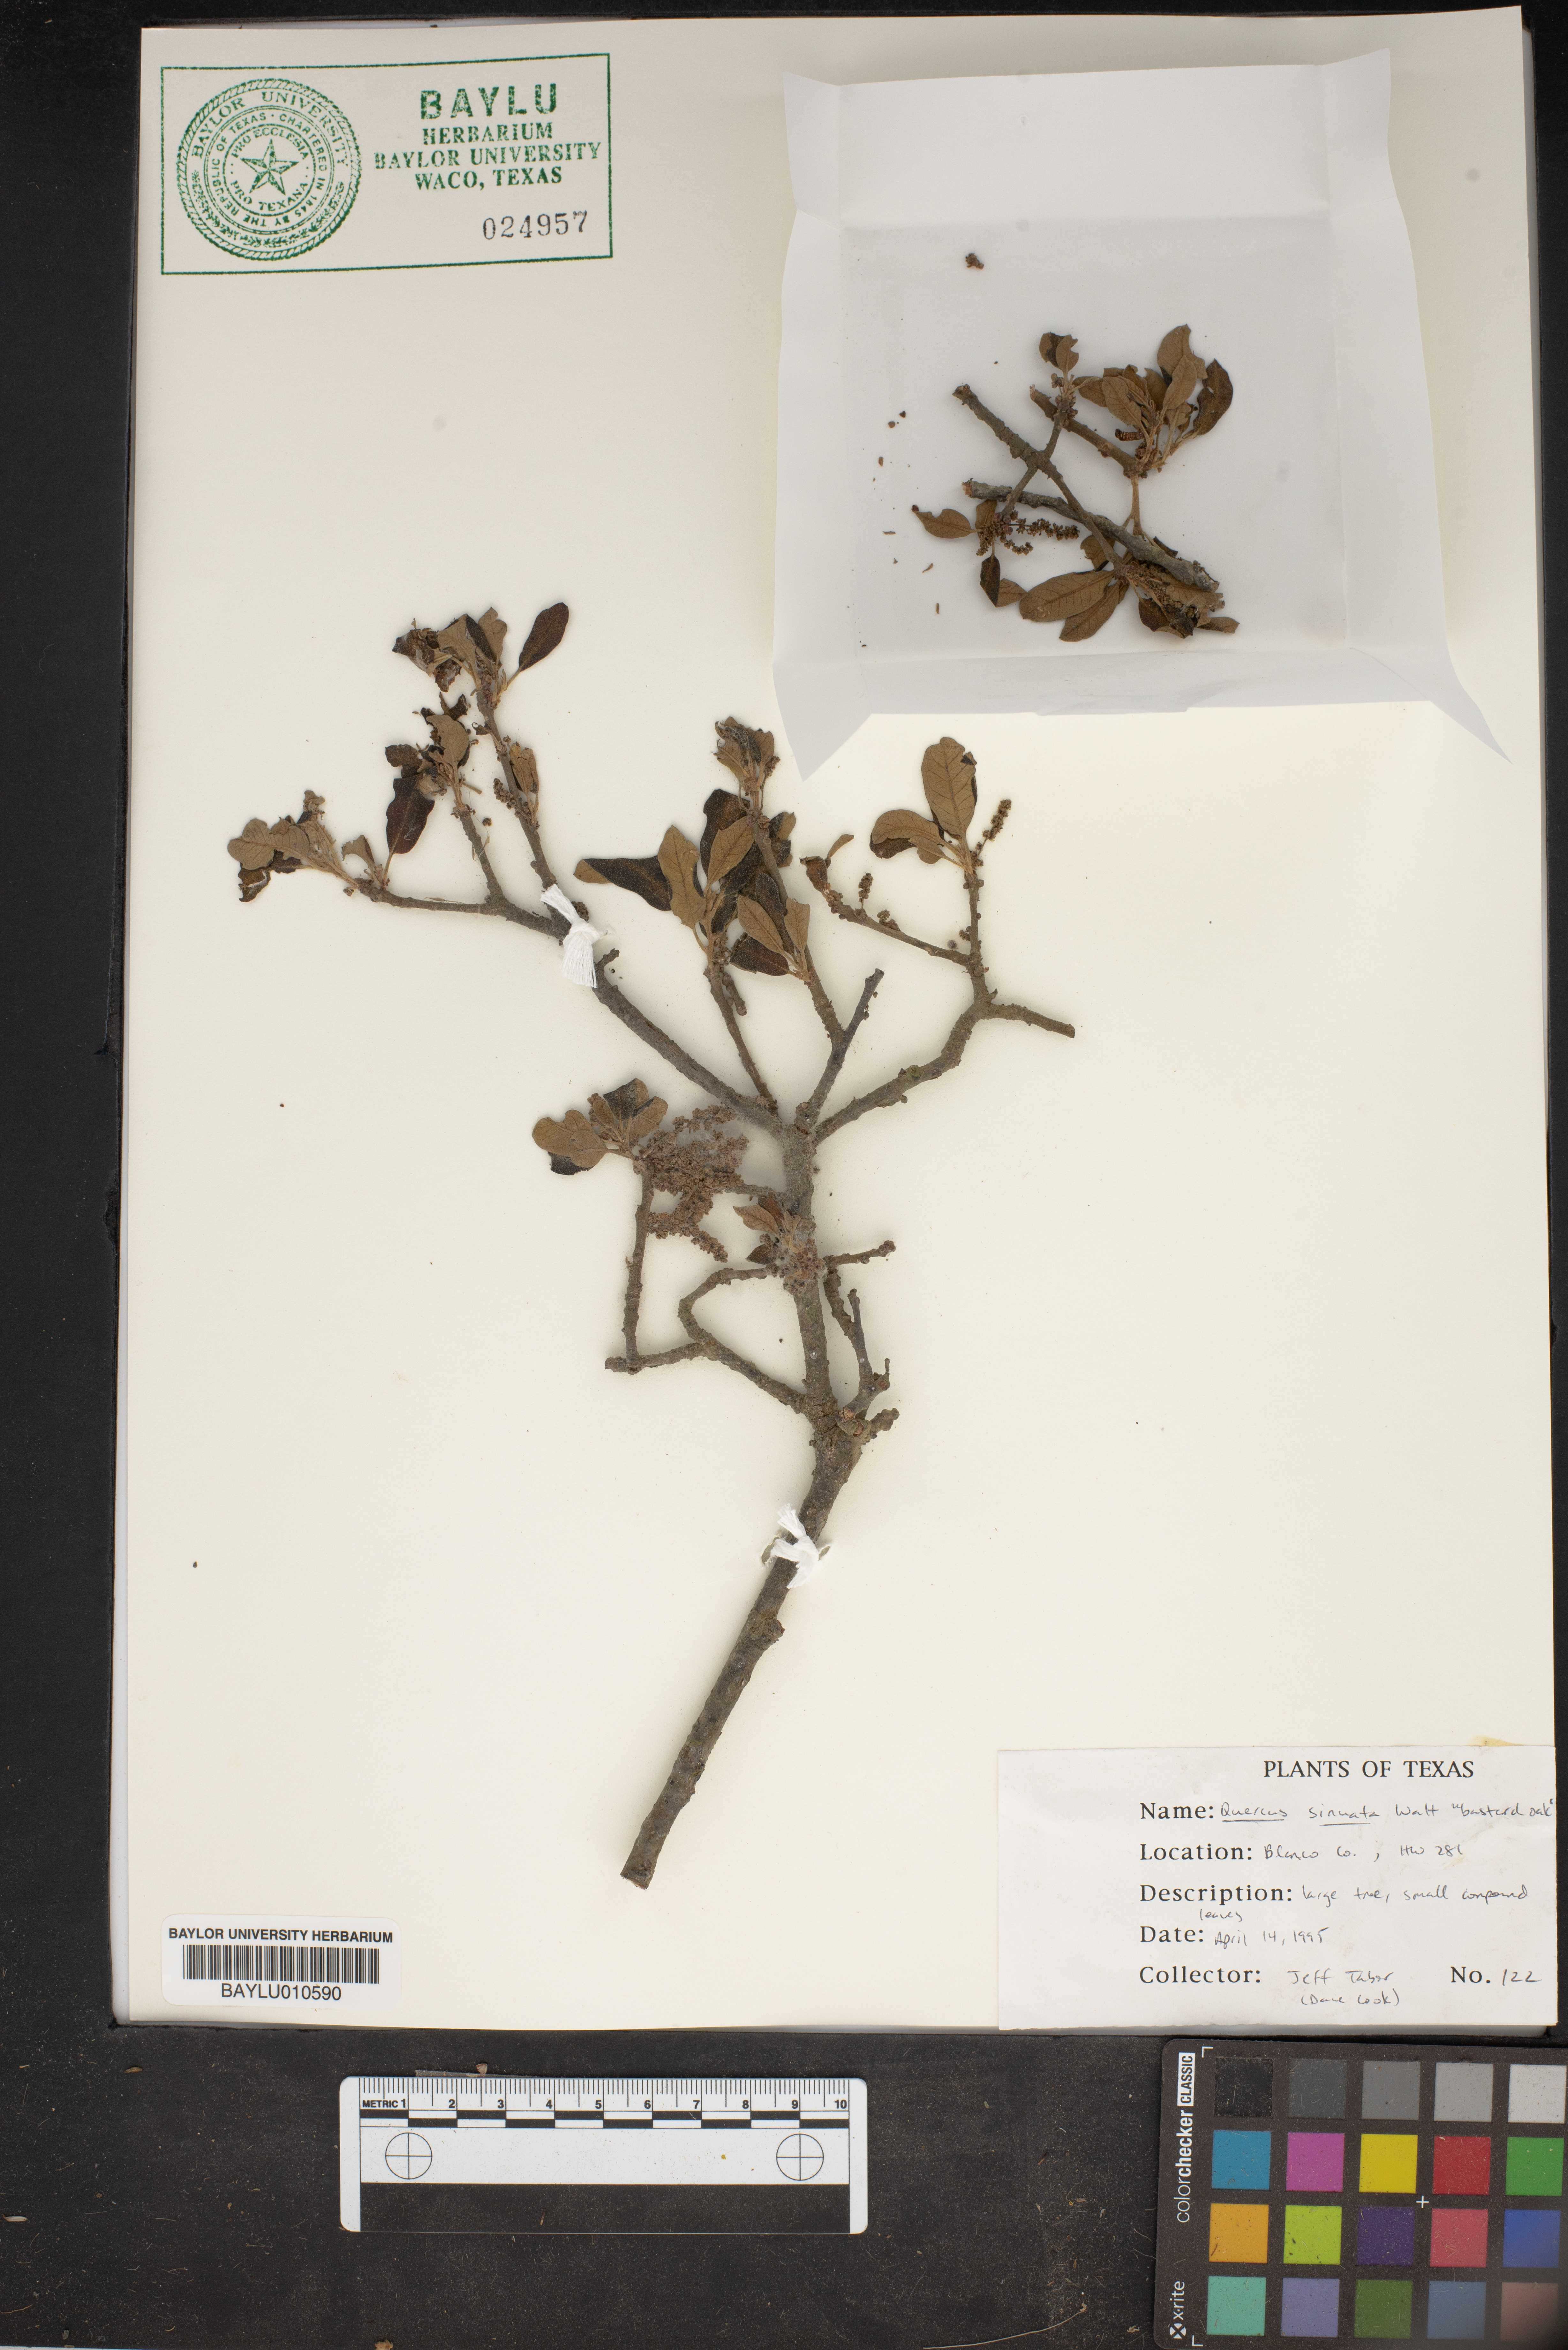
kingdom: Plantae
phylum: Tracheophyta
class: Magnoliopsida
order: Fagales
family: Fagaceae
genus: Quercus
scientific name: Quercus sinuata
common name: Durand oak
